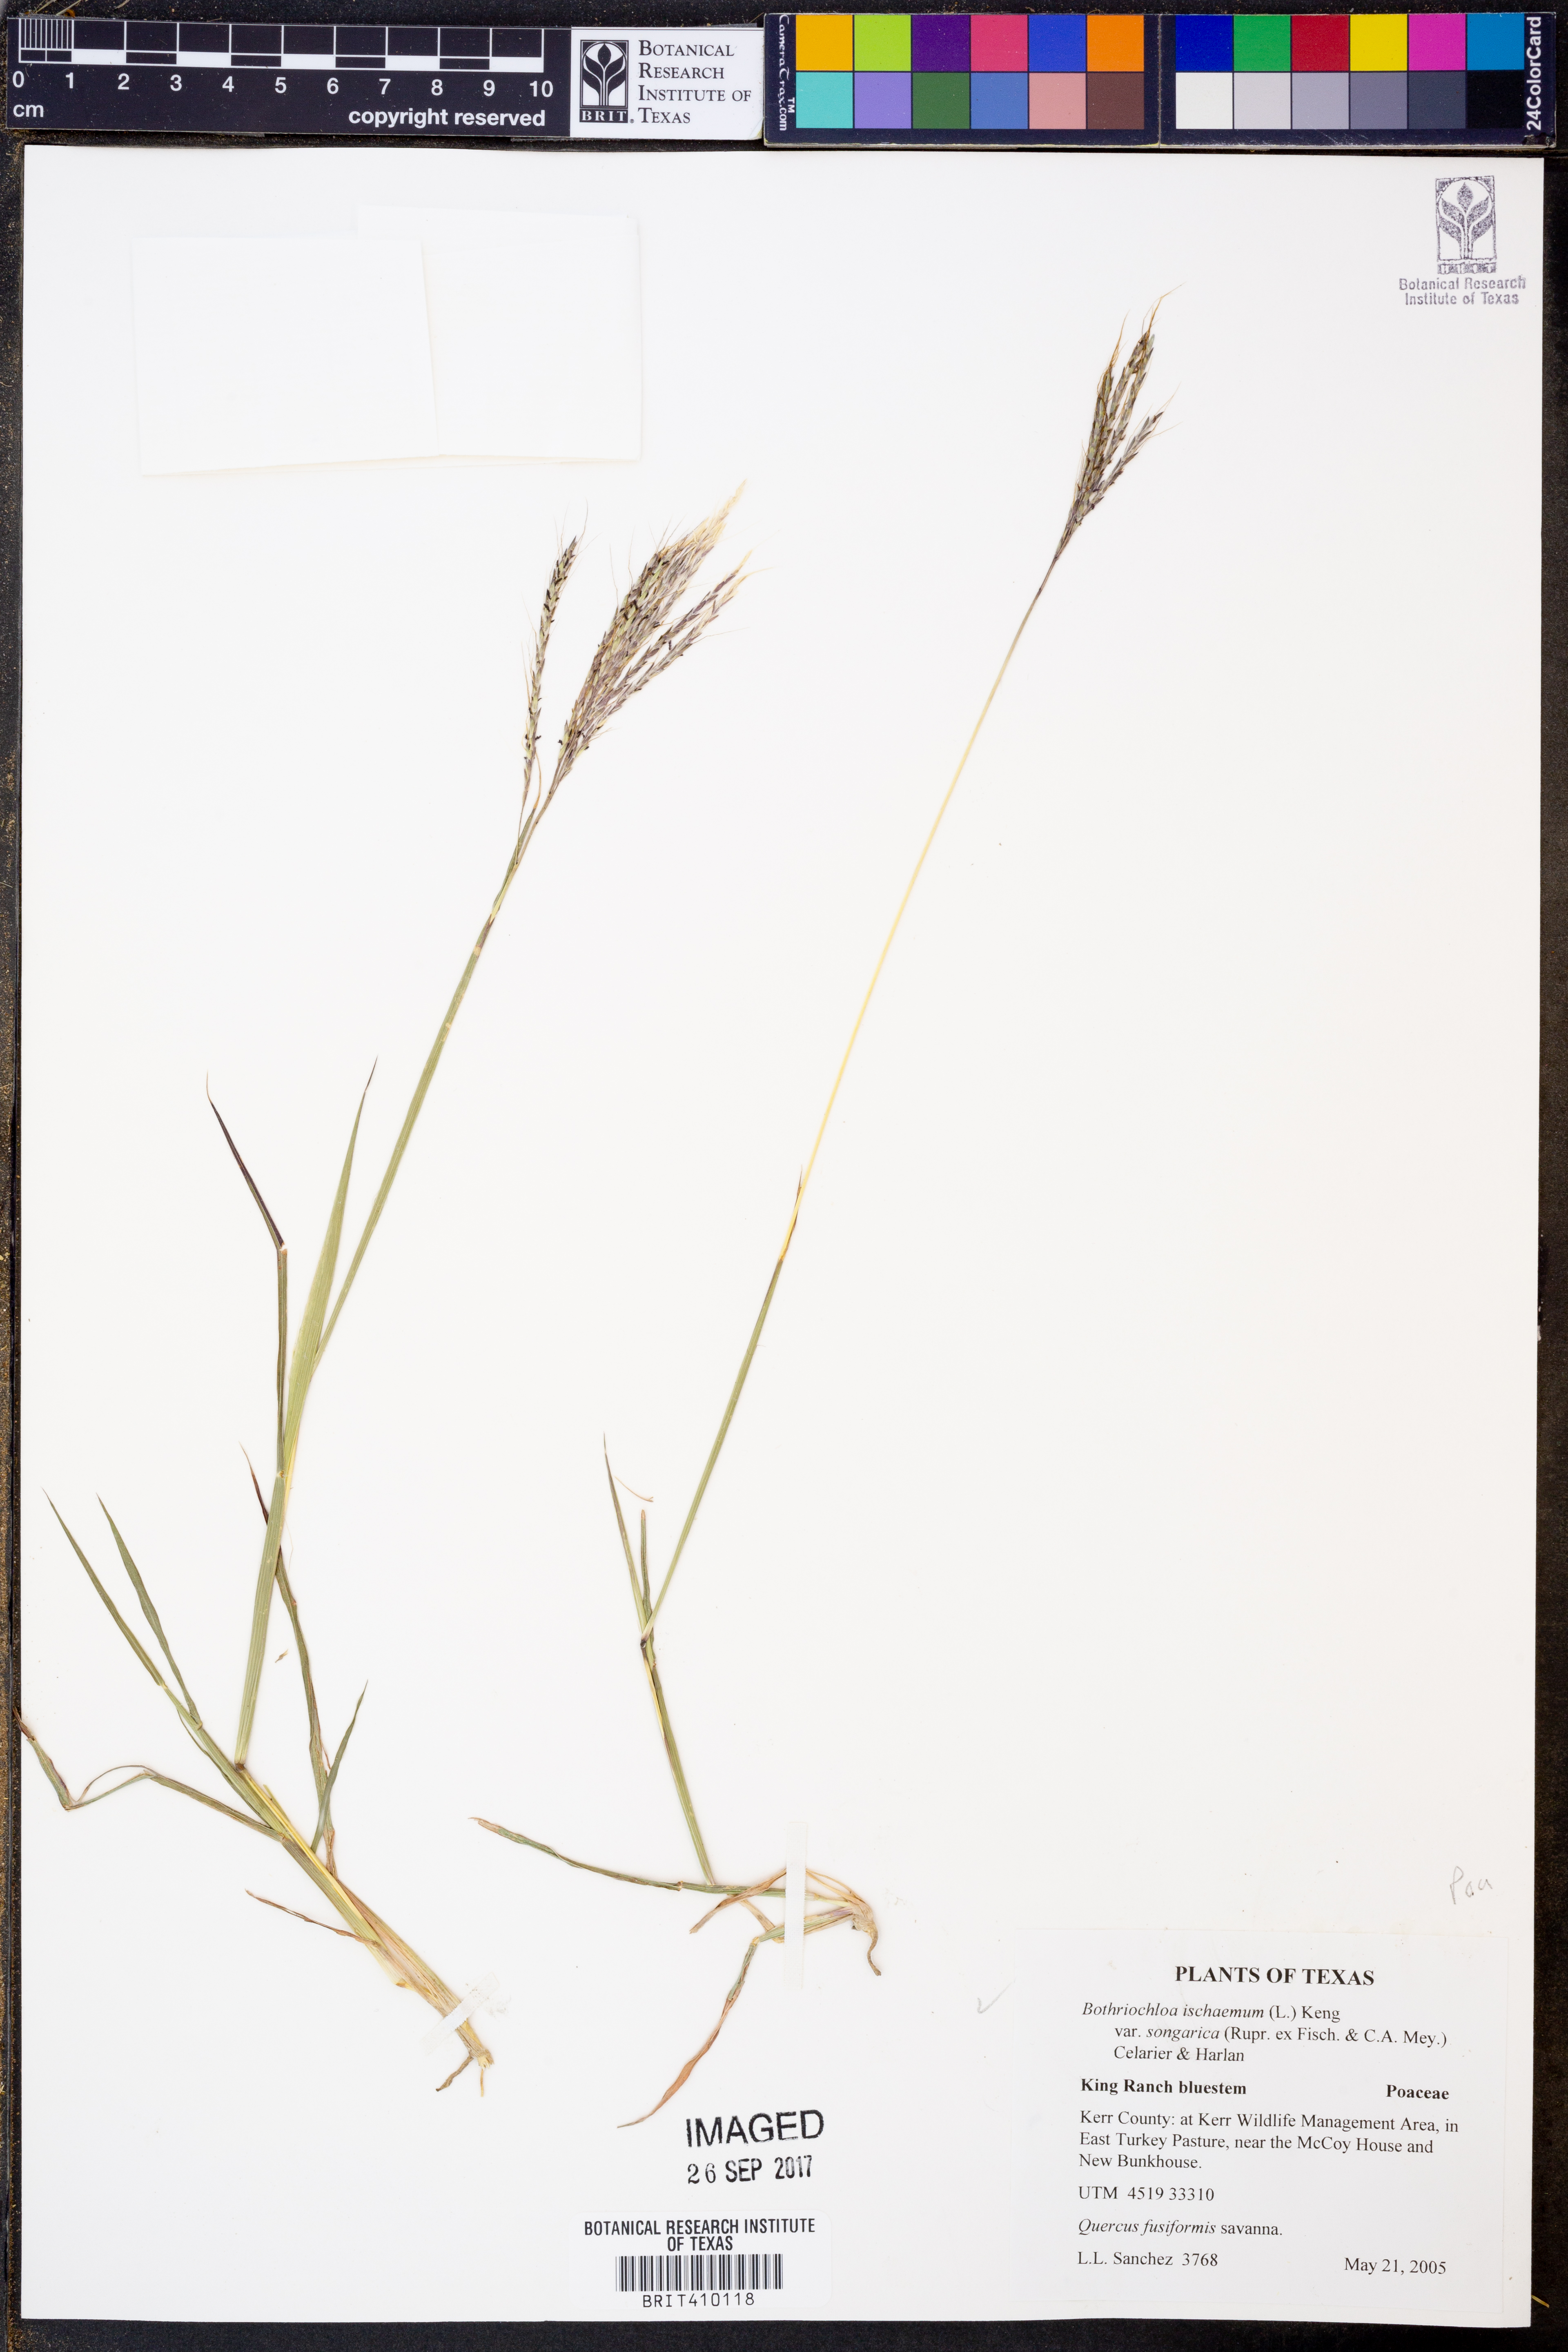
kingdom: Plantae
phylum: Tracheophyta
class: Liliopsida
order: Poales
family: Poaceae
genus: Bothriochloa
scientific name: Bothriochloa ischaemum
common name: Yellow bluestem
